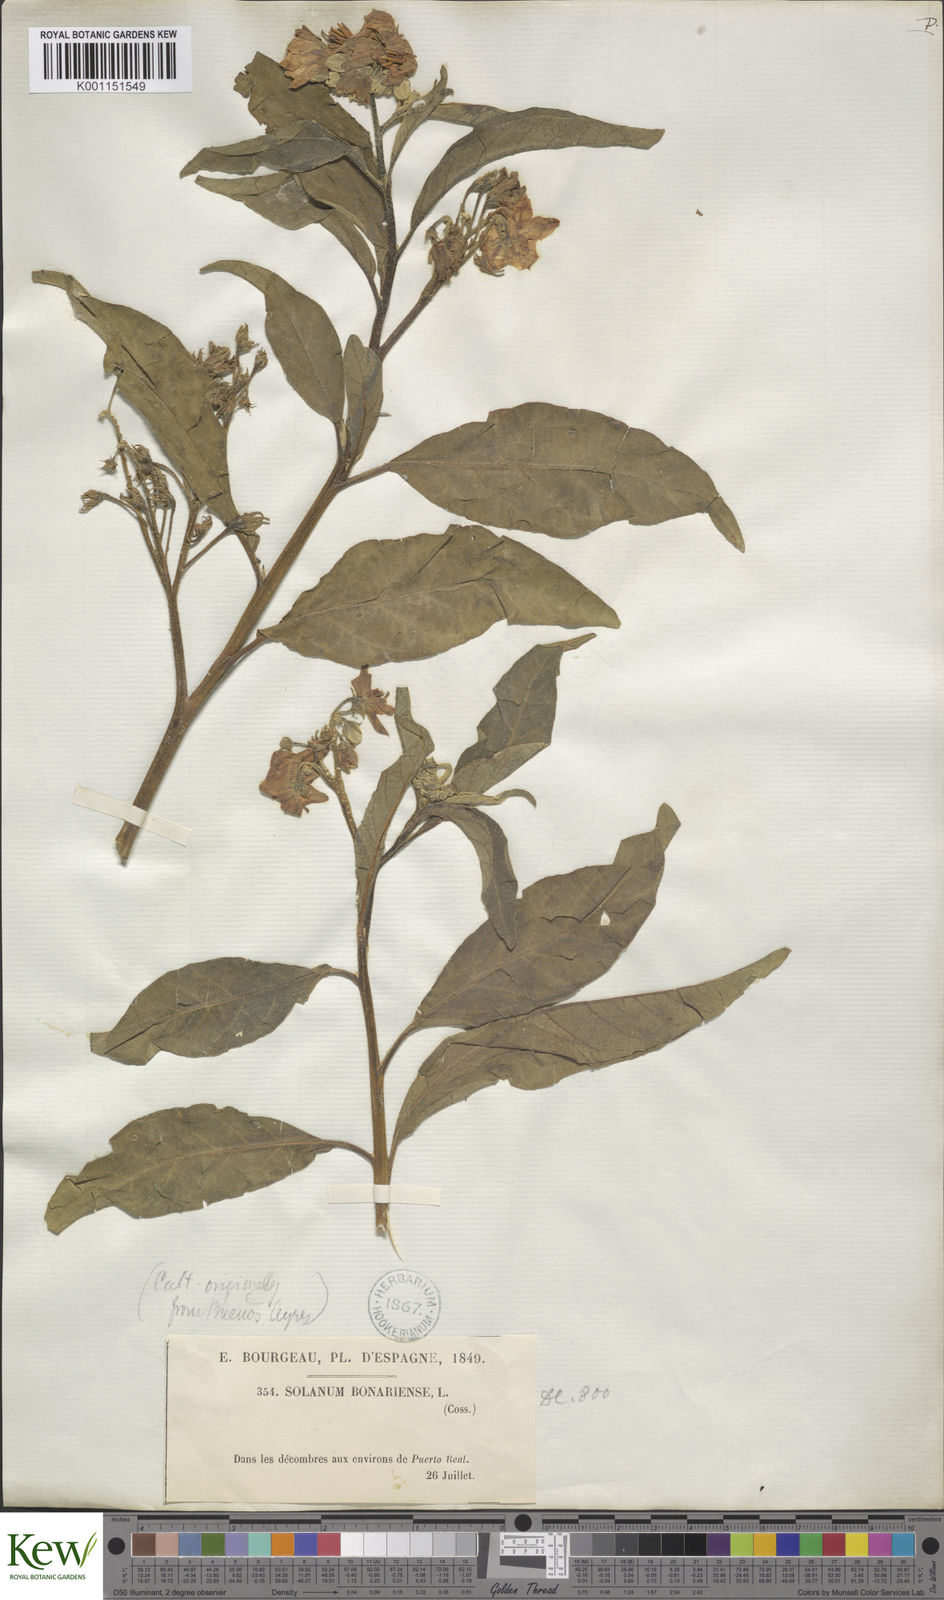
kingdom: Plantae
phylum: Tracheophyta
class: Magnoliopsida
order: Solanales
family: Solanaceae
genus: Solanum
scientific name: Solanum bonariense
